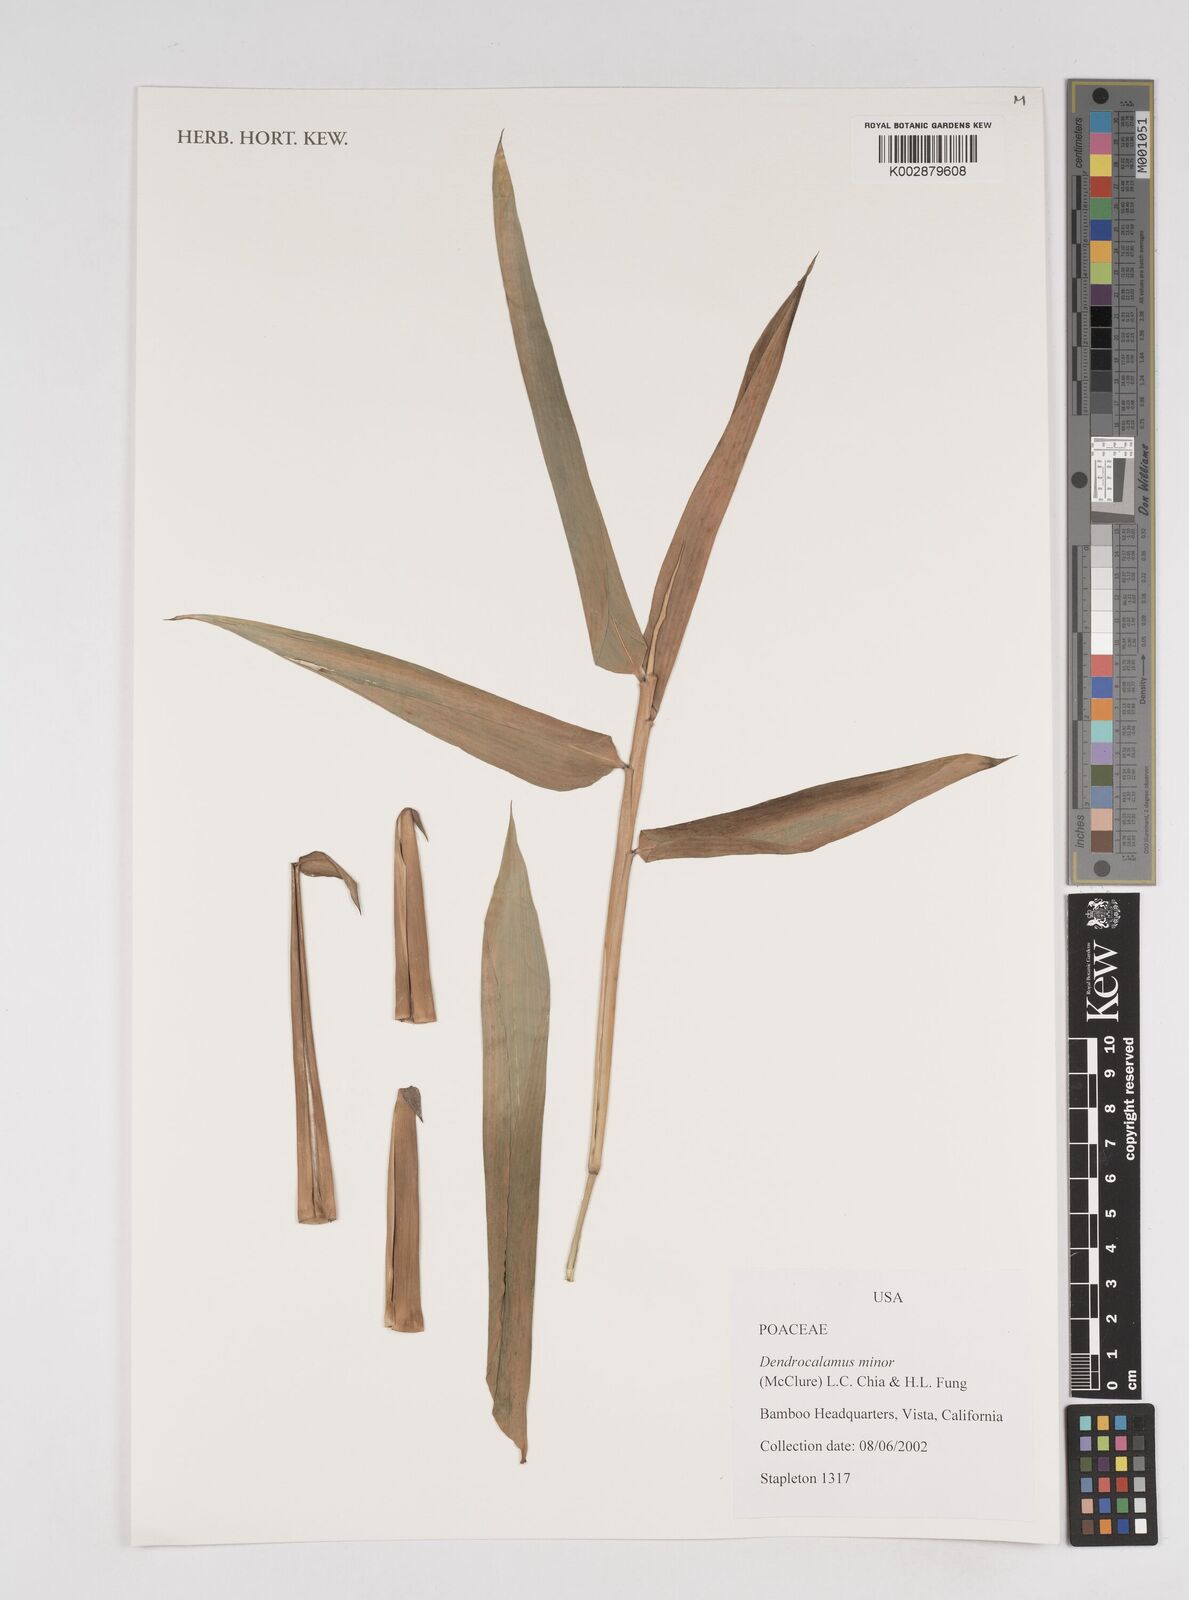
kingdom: Plantae
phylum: Tracheophyta
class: Liliopsida
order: Poales
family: Poaceae
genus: Dendrocalamus
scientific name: Dendrocalamus minor
